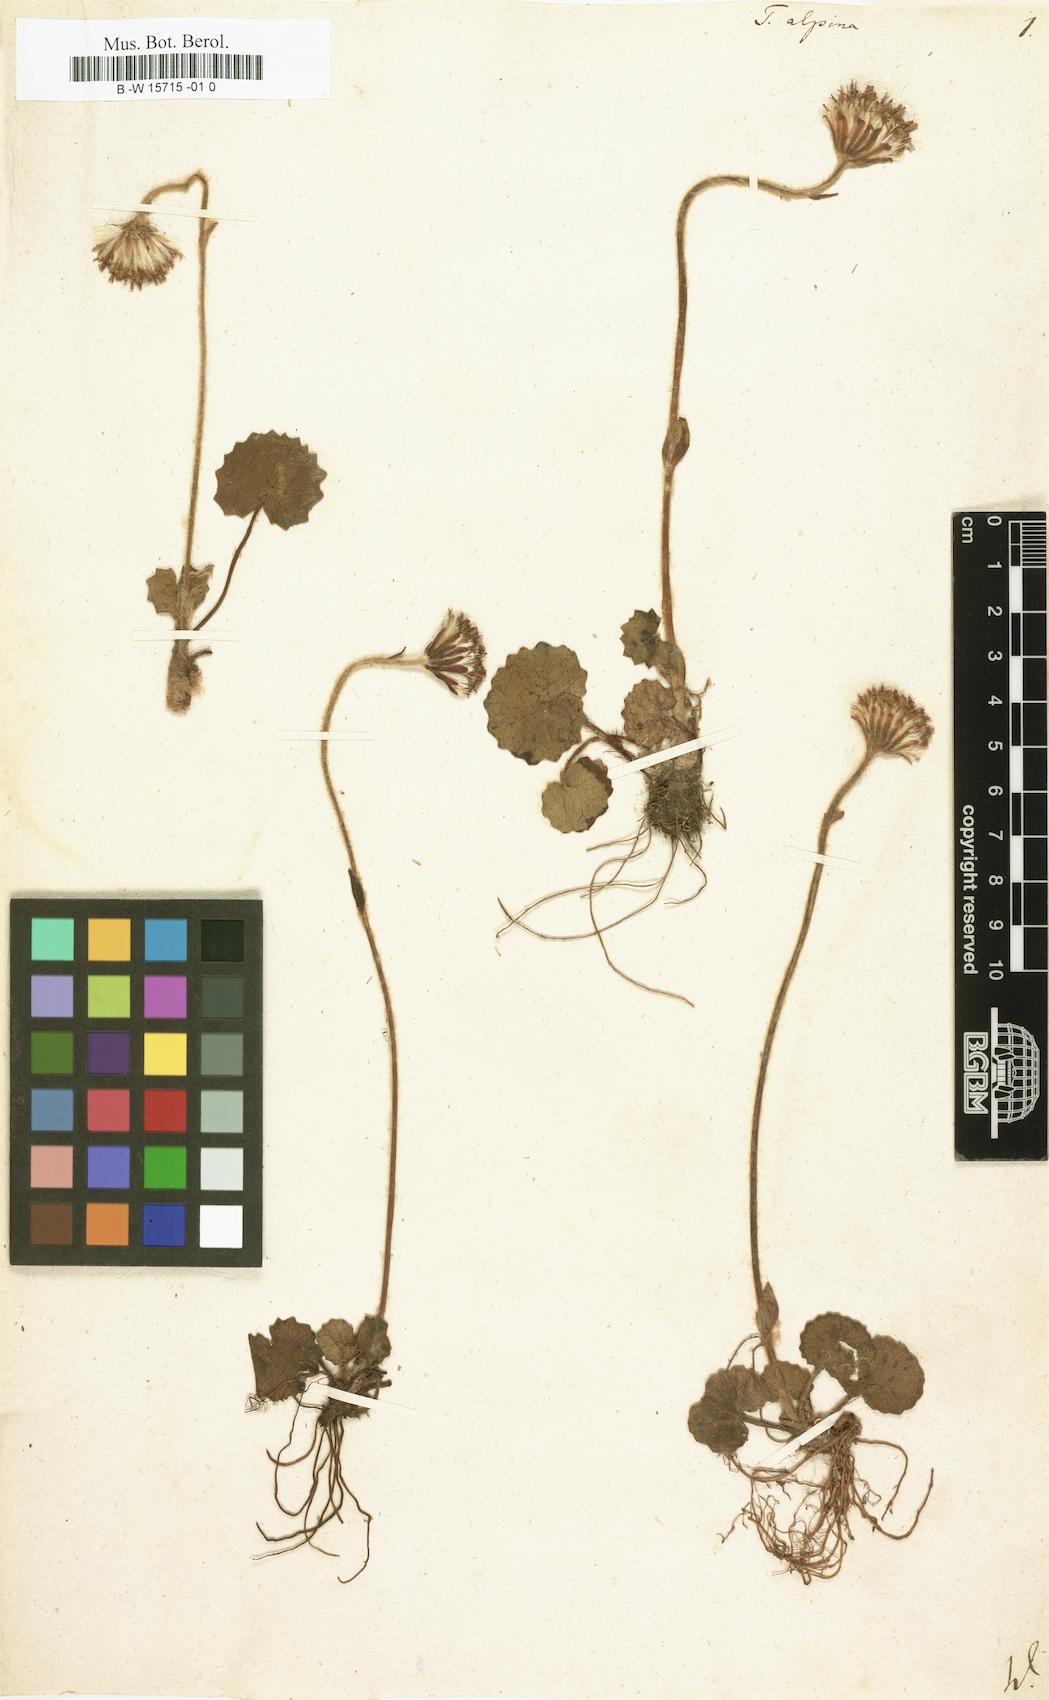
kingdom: Plantae
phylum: Tracheophyta
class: Magnoliopsida
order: Asterales
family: Asteraceae
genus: Tussilago
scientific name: Tussilago alpina
